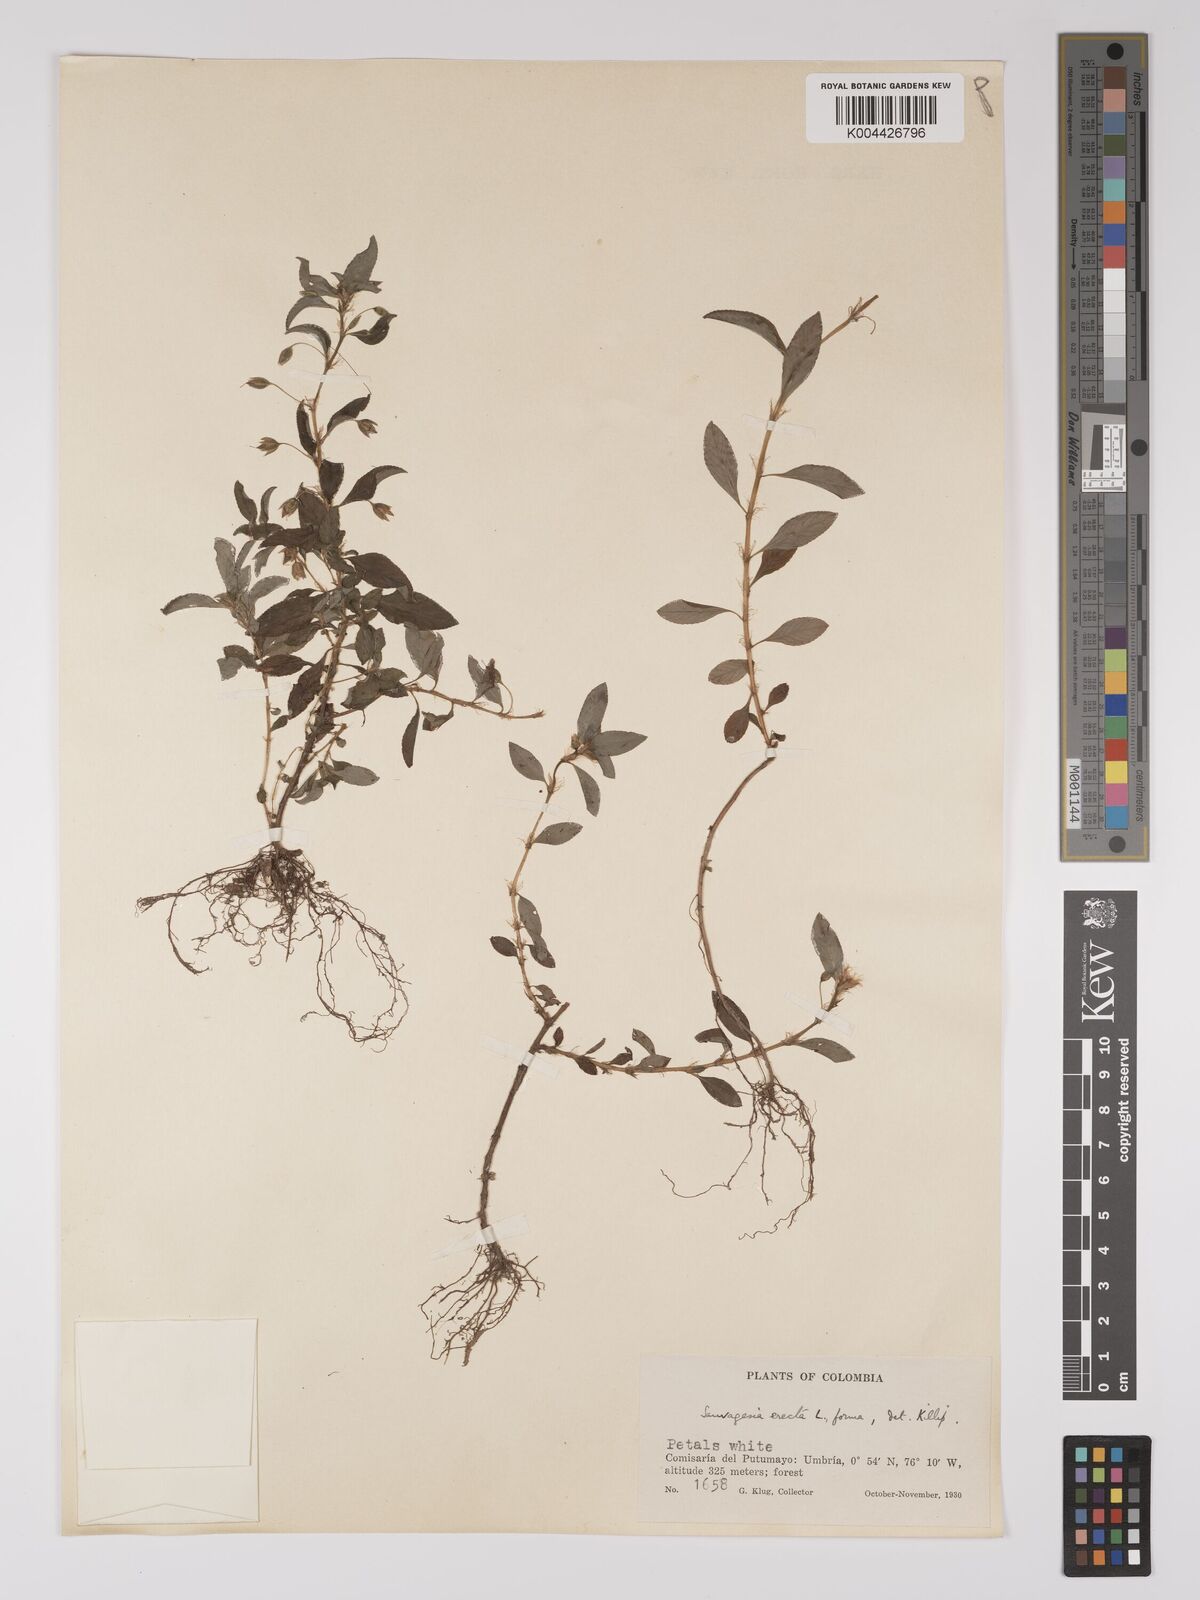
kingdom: Plantae
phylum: Tracheophyta
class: Magnoliopsida
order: Malpighiales
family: Ochnaceae
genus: Sauvagesia
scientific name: Sauvagesia erecta
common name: Creole tea
